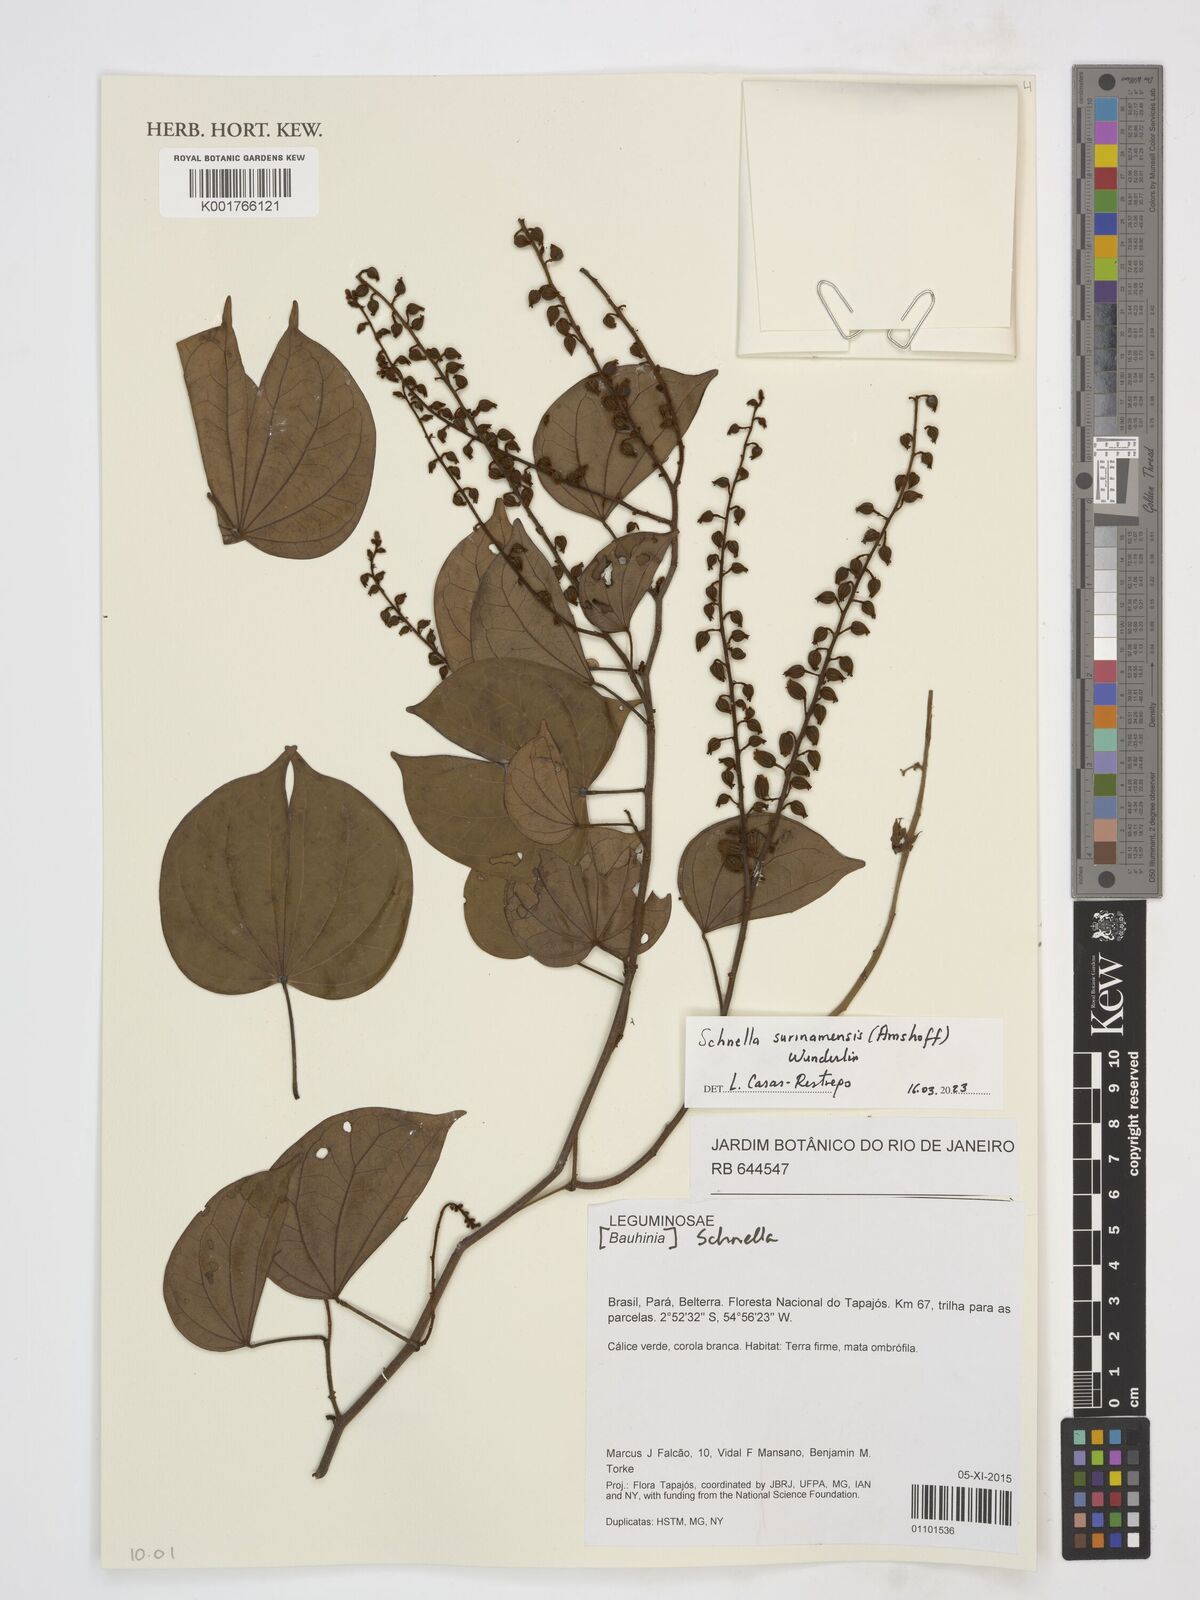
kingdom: Plantae
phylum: Tracheophyta
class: Magnoliopsida
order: Fabales
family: Fabaceae
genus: Schnella
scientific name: Schnella surinamensis
